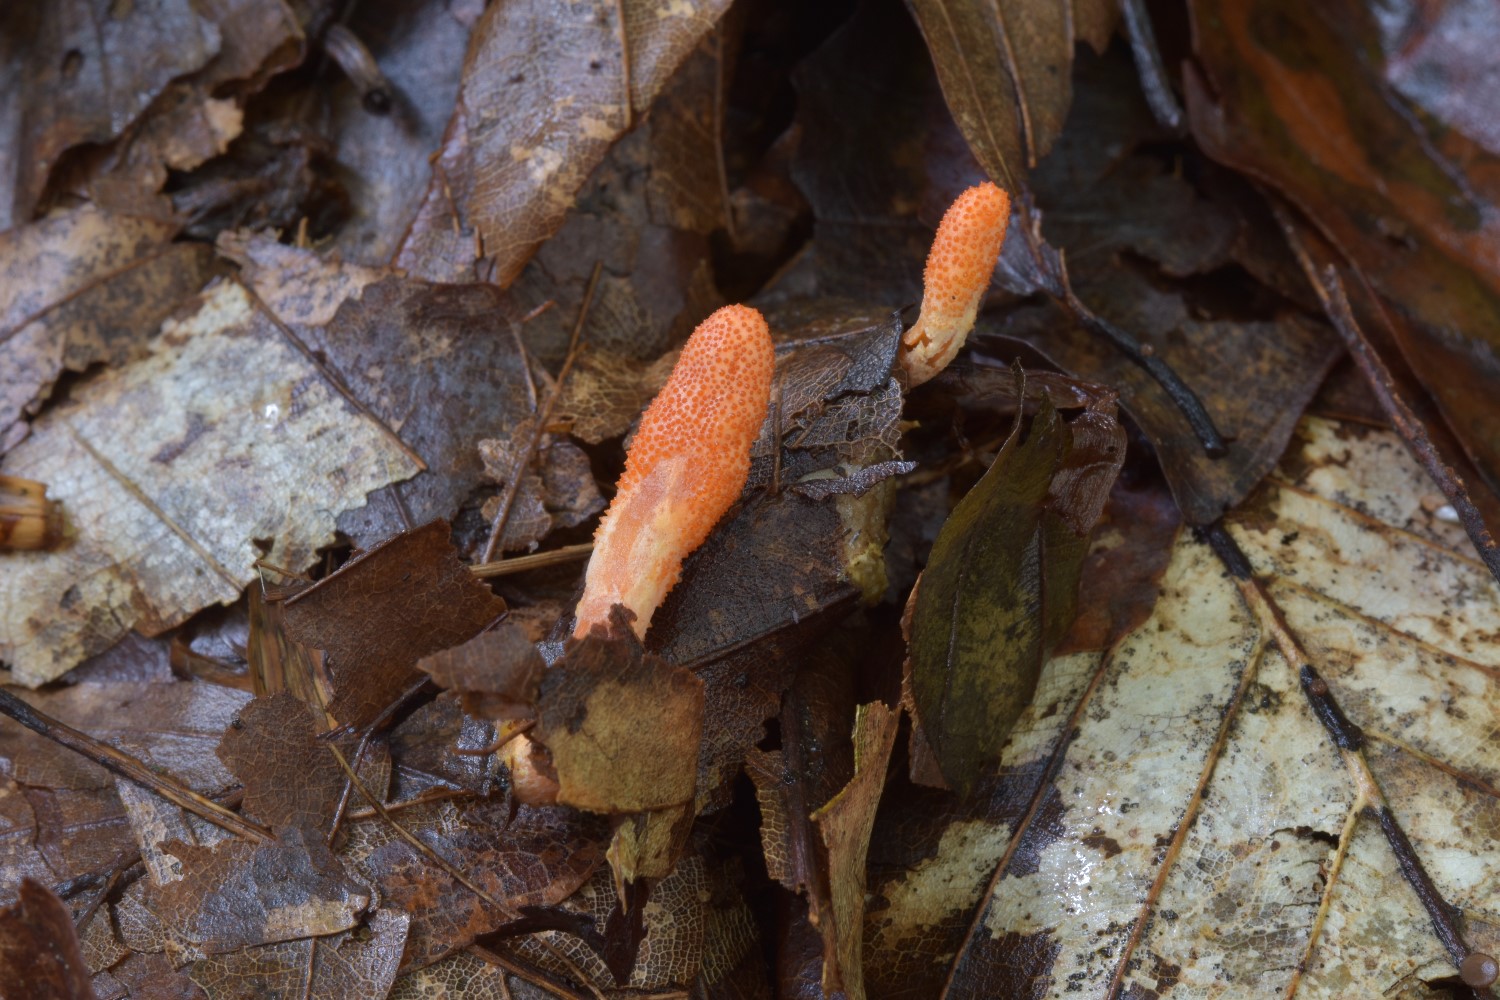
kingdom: Fungi
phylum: Ascomycota
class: Sordariomycetes
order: Hypocreales
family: Cordycipitaceae
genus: Cordyceps
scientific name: Cordyceps militaris
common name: puppe-snyltekølle
